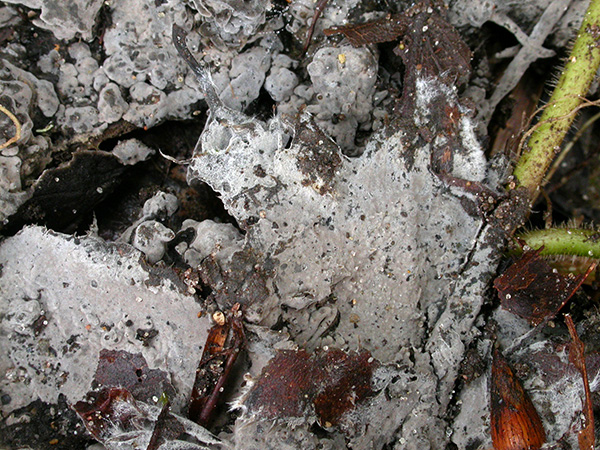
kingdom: Fungi
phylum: Basidiomycota
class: Agaricomycetes
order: Thelephorales
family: Thelephoraceae
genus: Thelephora
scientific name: Thelephora wakefieldiae
